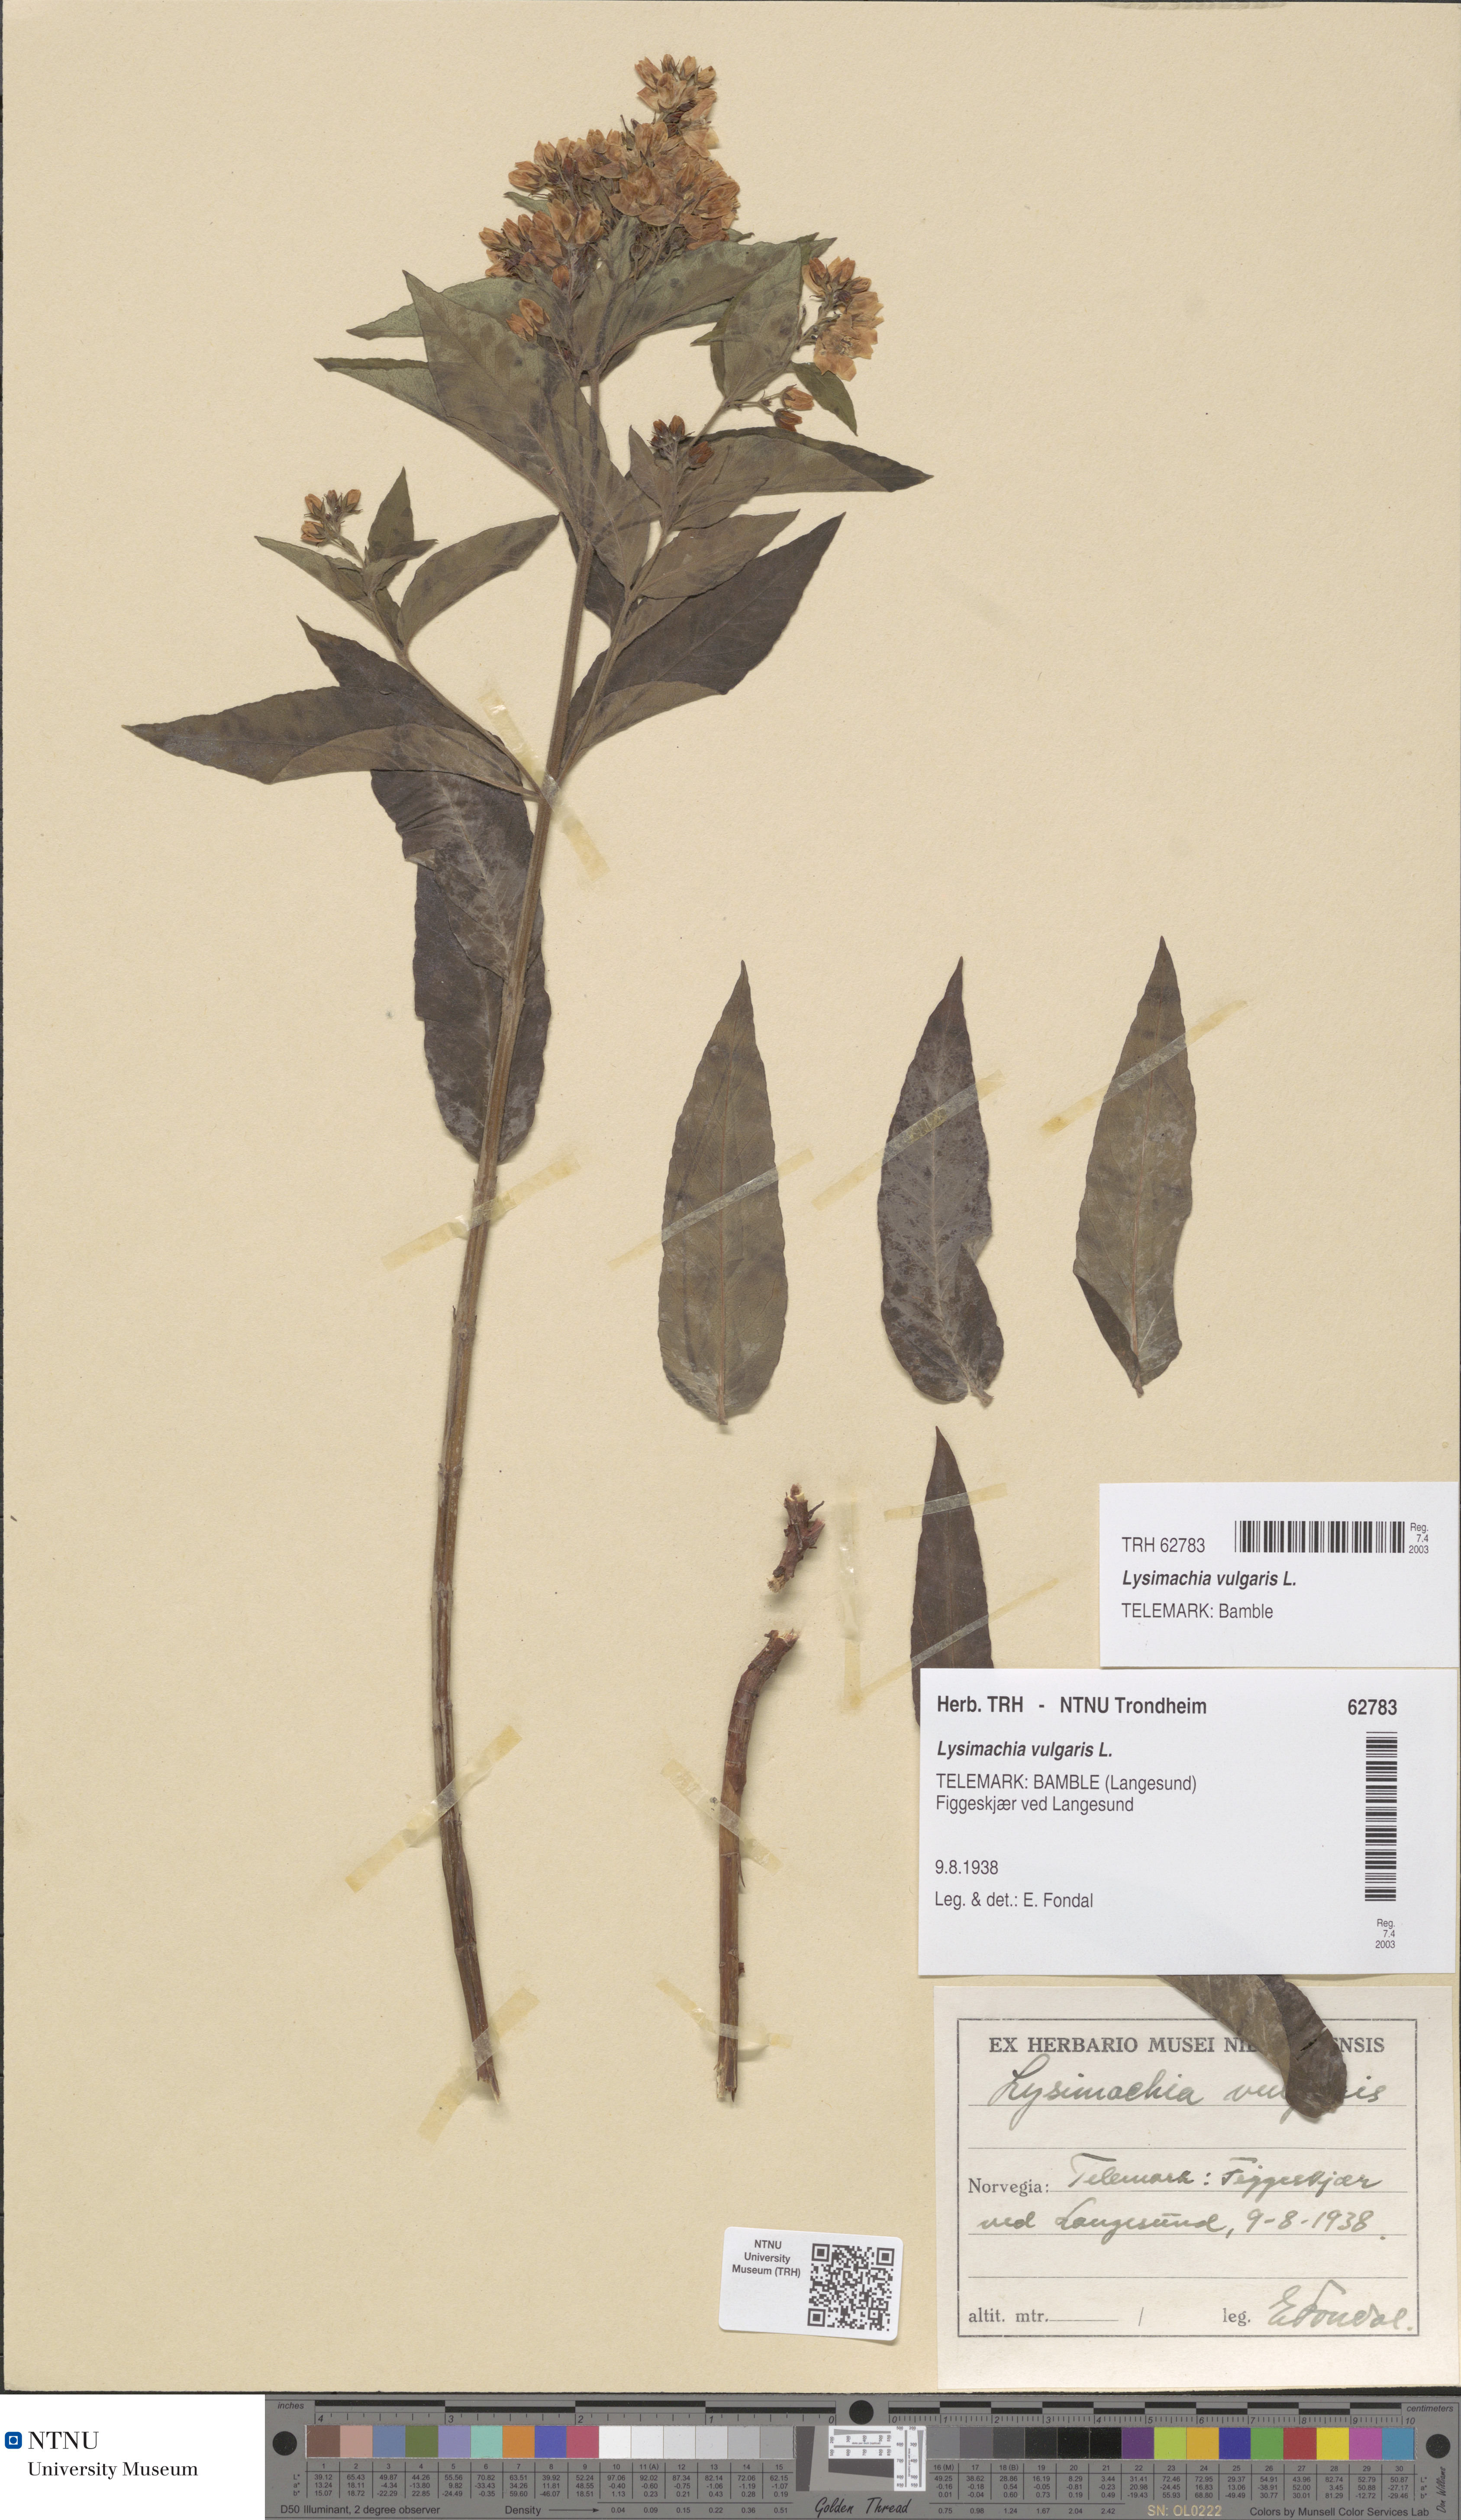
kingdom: Plantae
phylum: Tracheophyta
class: Magnoliopsida
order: Ericales
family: Primulaceae
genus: Lysimachia
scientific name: Lysimachia vulgaris
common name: Yellow loosestrife
